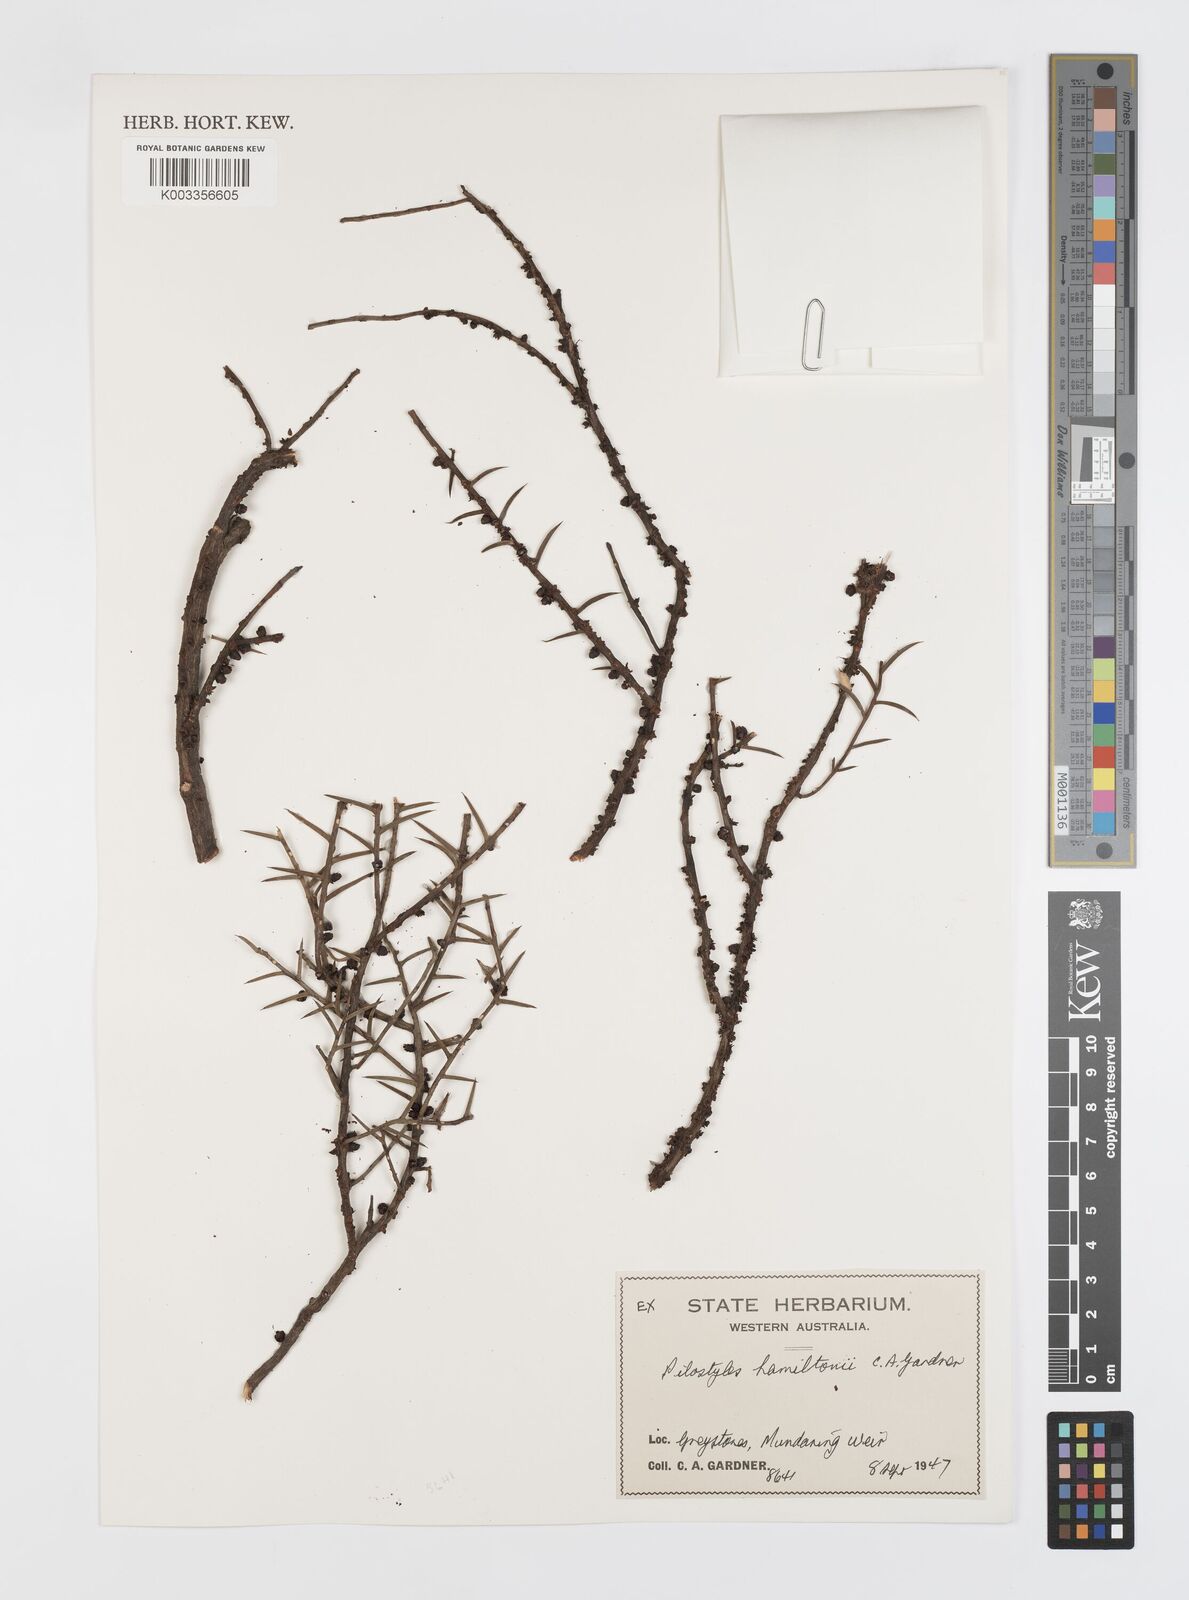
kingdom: Plantae
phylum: Tracheophyta
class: Magnoliopsida
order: Cucurbitales
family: Apodanthaceae
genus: Pilostyles
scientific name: Pilostyles haussknechtii
